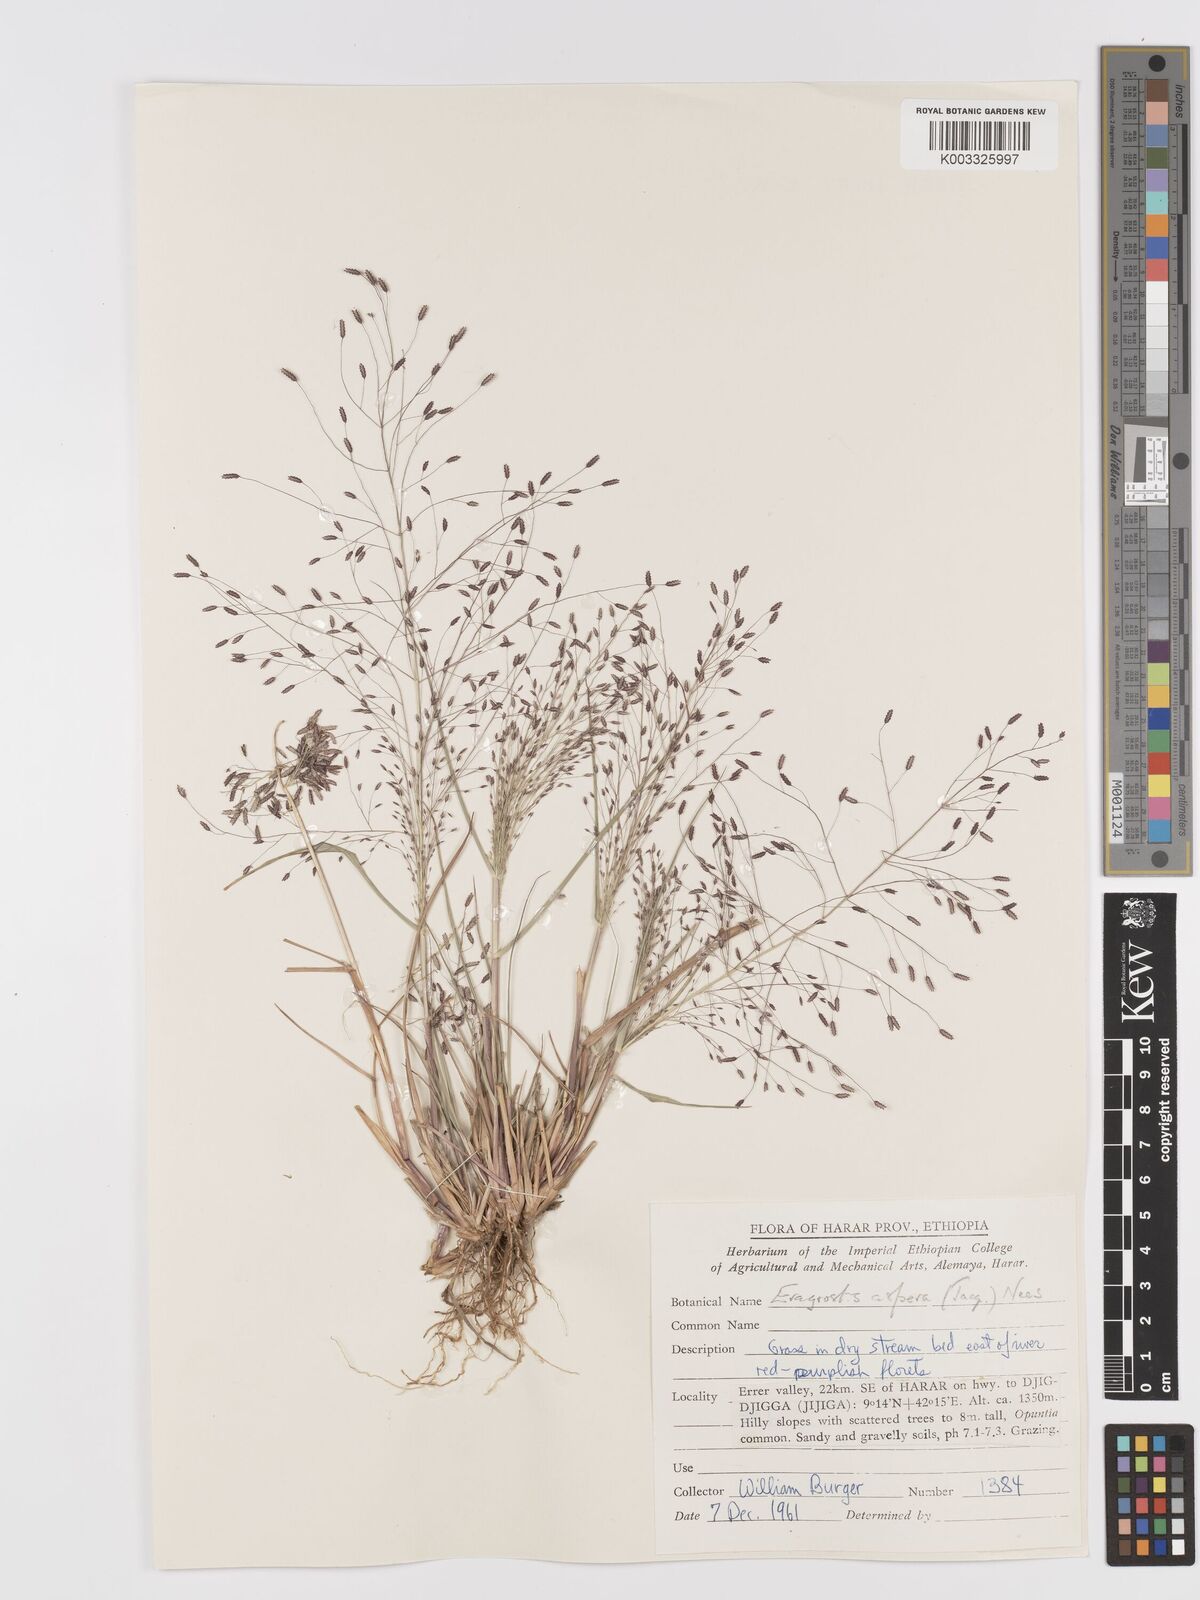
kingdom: Plantae
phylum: Tracheophyta
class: Liliopsida
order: Poales
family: Poaceae
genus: Eragrostis
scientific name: Eragrostis aspera
